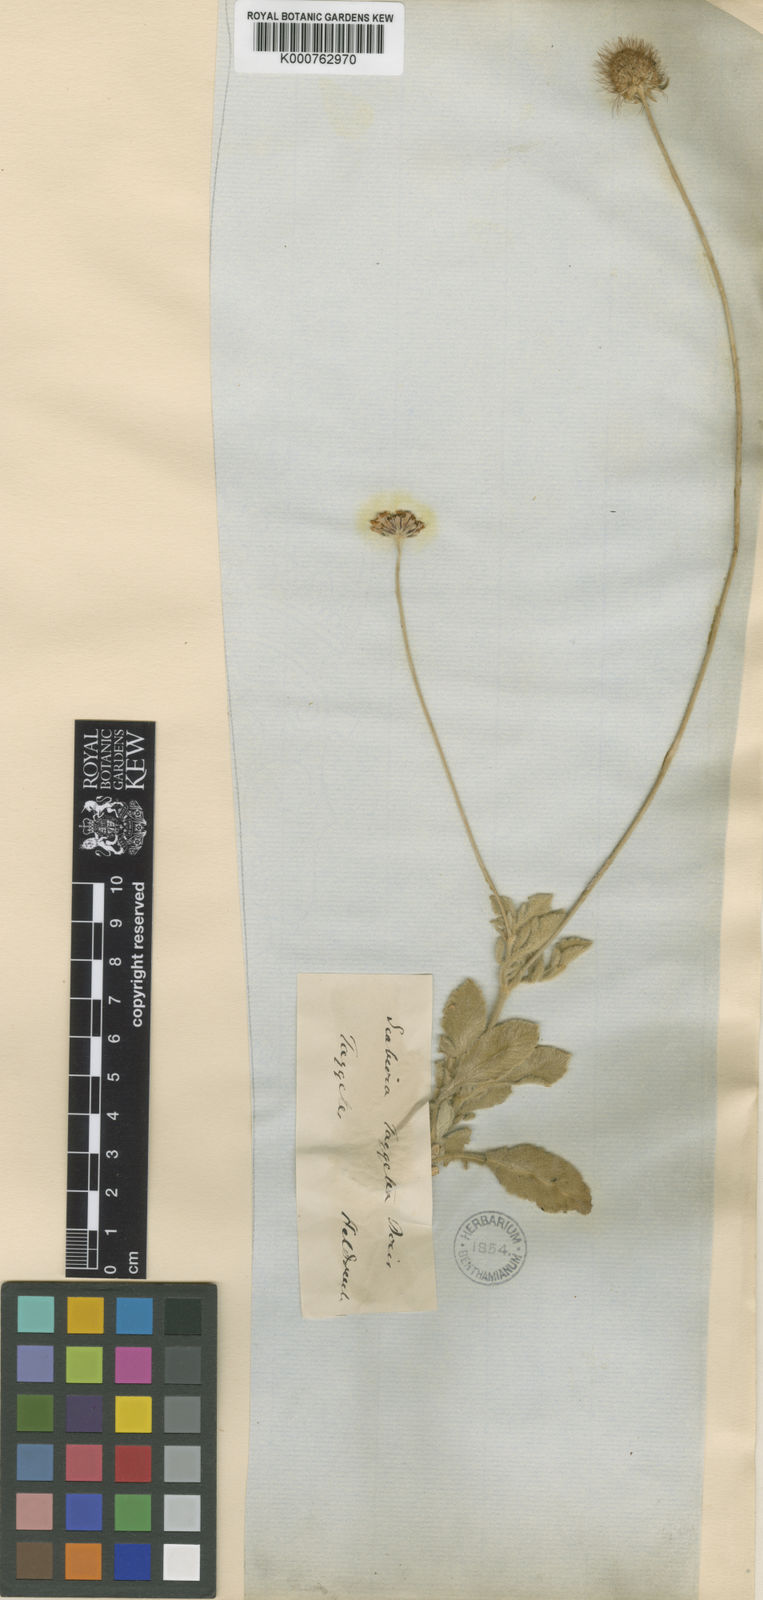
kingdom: Plantae
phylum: Tracheophyta
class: Magnoliopsida
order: Dipsacales
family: Caprifoliaceae
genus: Scabiosa
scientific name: Scabiosa taygetea
